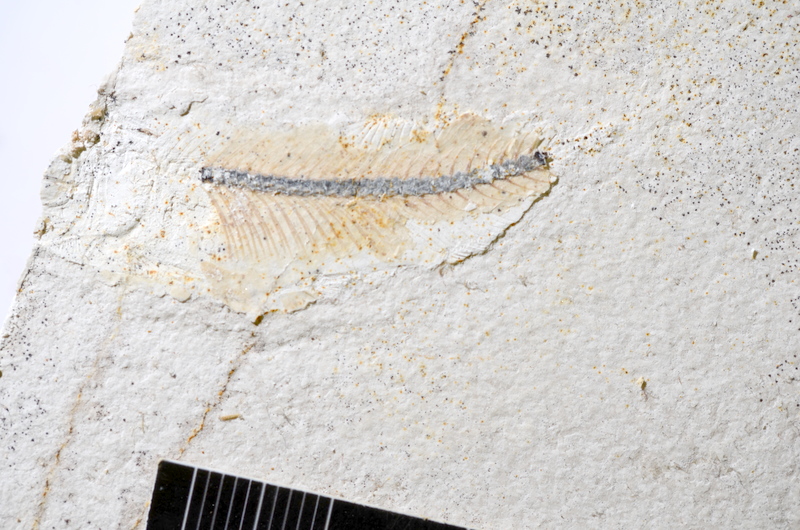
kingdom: Animalia
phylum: Chordata
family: Ascalaboidae
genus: Ebertichthys
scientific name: Ebertichthys ettlingensis
